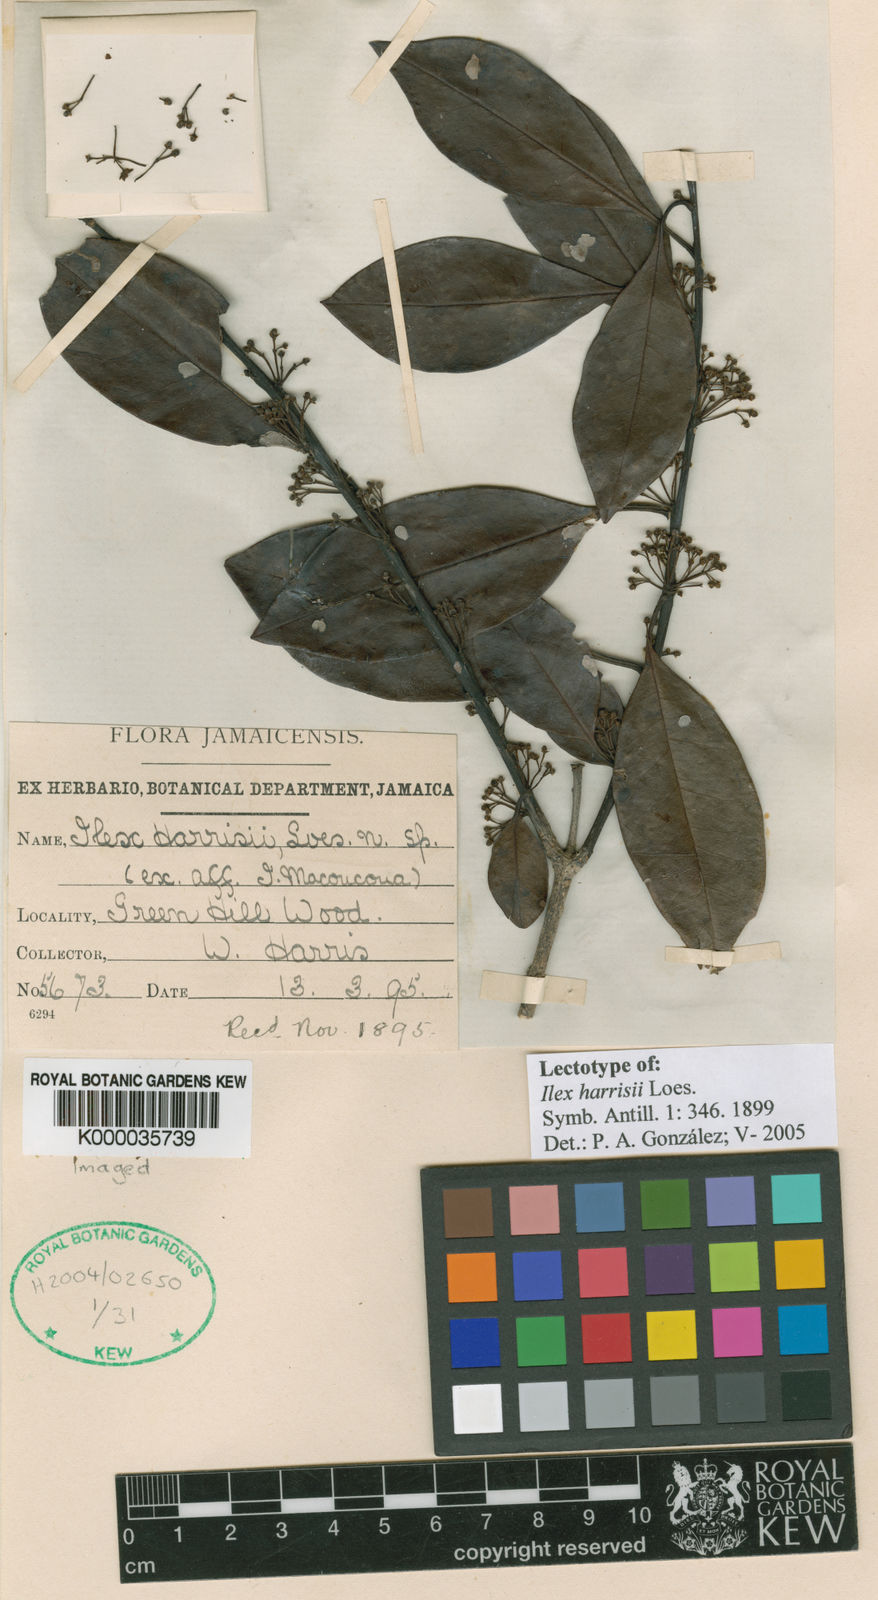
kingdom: Plantae
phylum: Tracheophyta
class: Magnoliopsida
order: Aquifoliales
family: Aquifoliaceae
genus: Ilex
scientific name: Ilex guianensis
